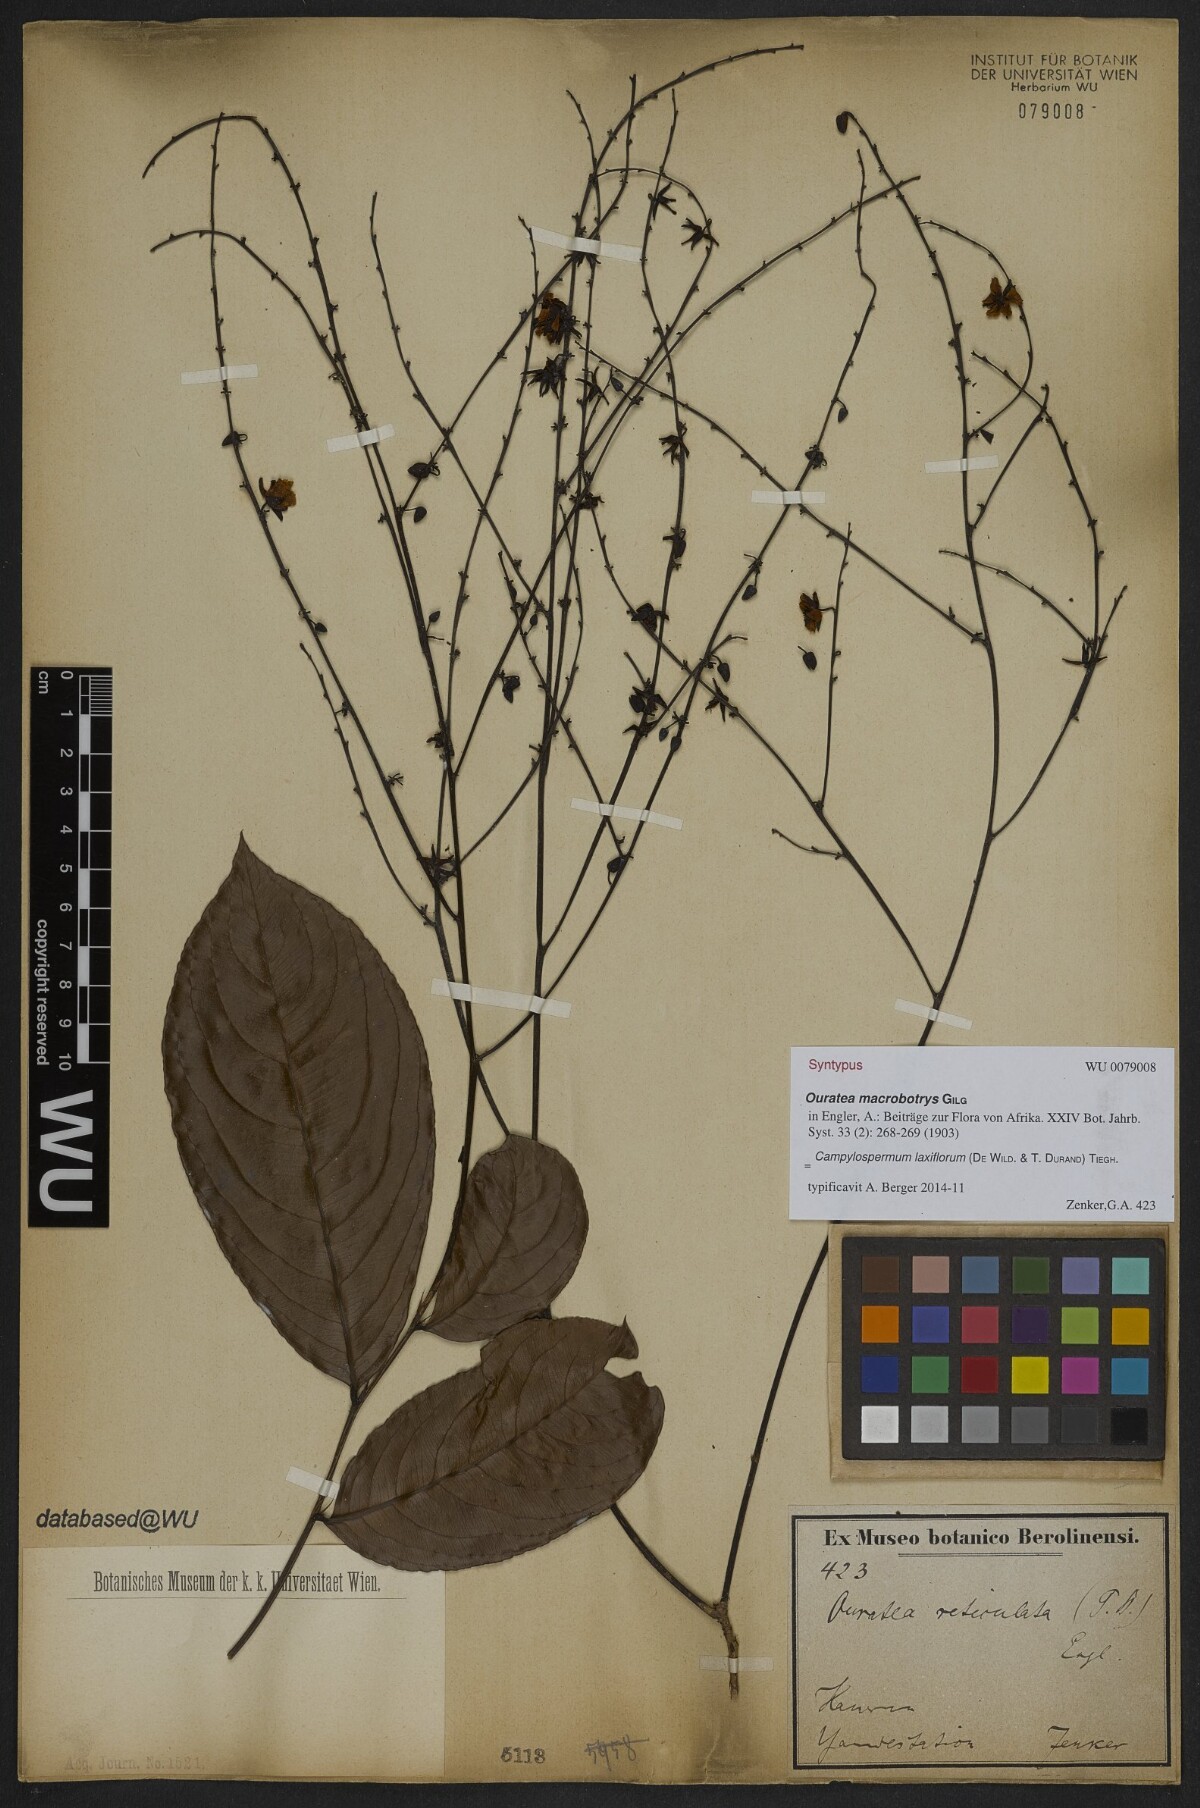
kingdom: Plantae
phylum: Tracheophyta
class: Magnoliopsida
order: Malpighiales
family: Ochnaceae
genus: Campylospermum
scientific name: Campylospermum laxiflorum
